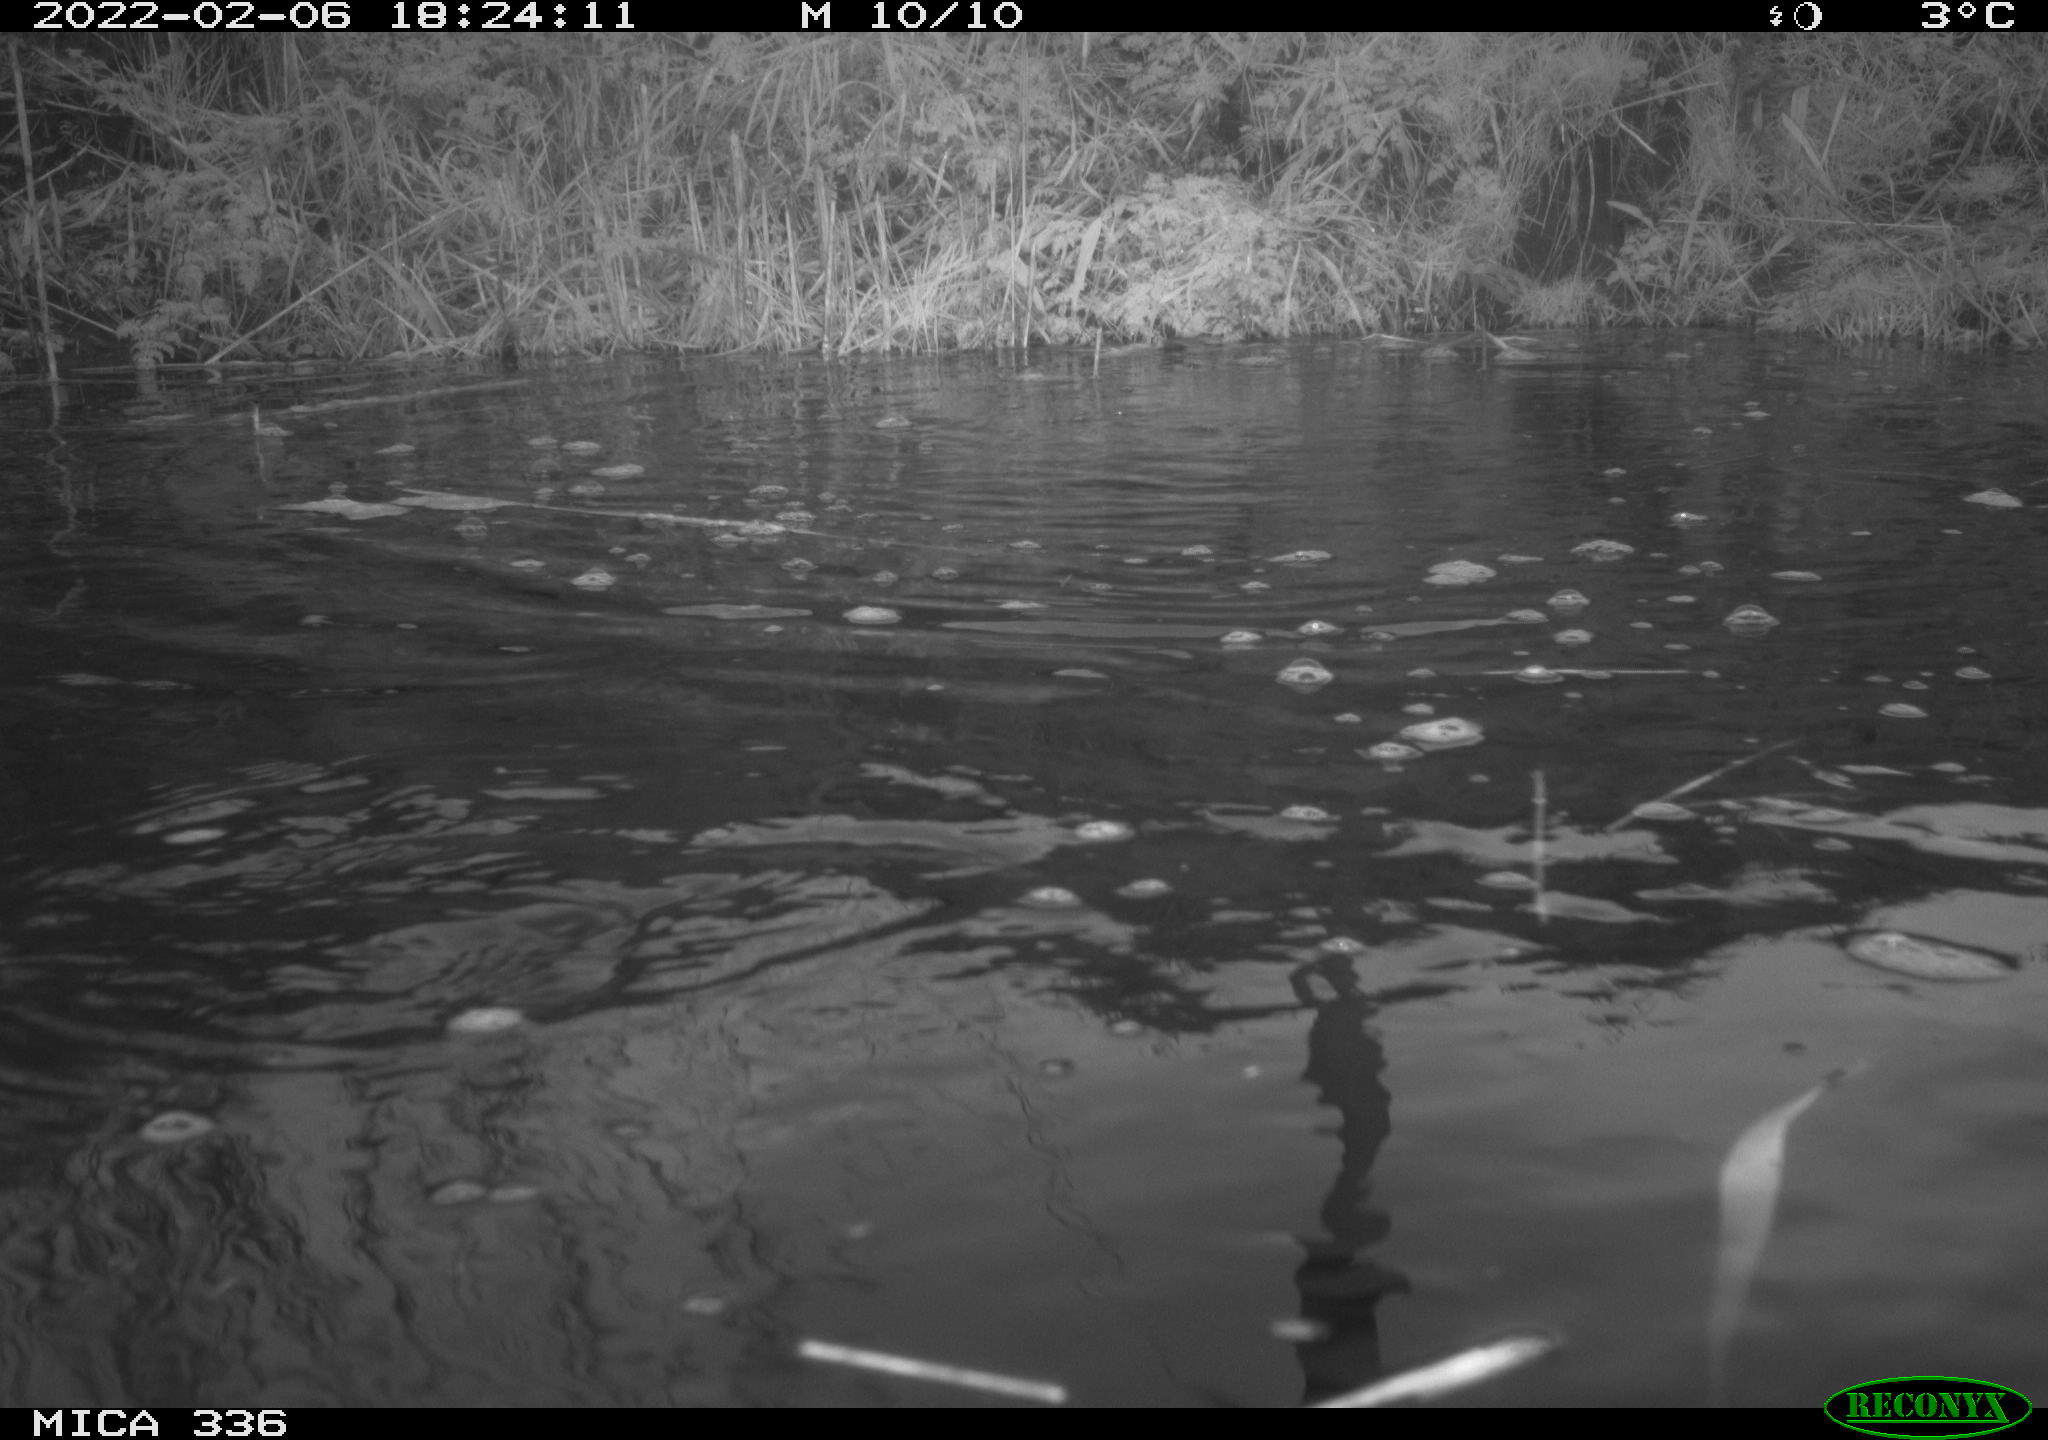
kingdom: Animalia
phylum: Chordata
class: Aves
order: Gruiformes
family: Rallidae
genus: Gallinula
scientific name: Gallinula chloropus
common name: Common moorhen
